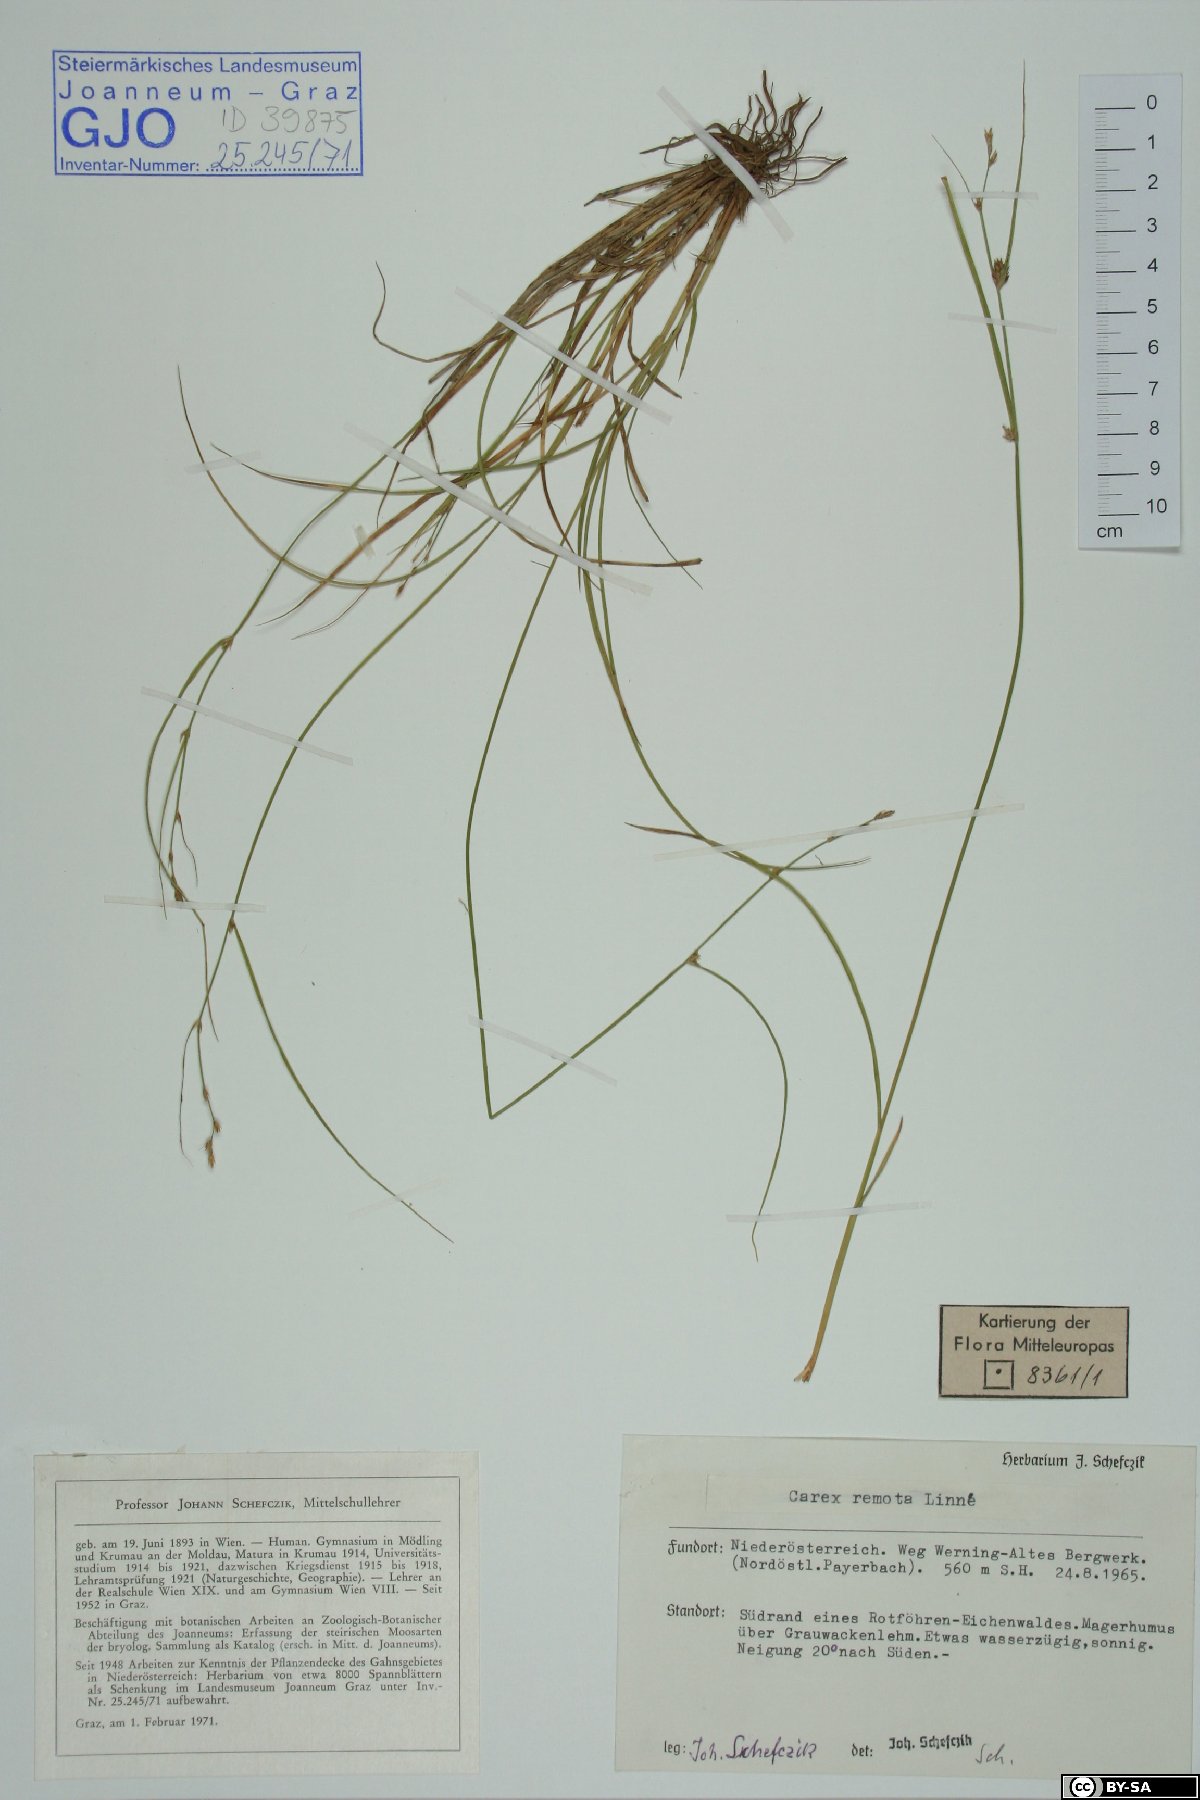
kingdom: Plantae
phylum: Tracheophyta
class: Liliopsida
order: Poales
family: Cyperaceae
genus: Carex
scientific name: Carex remota
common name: Remote sedge
